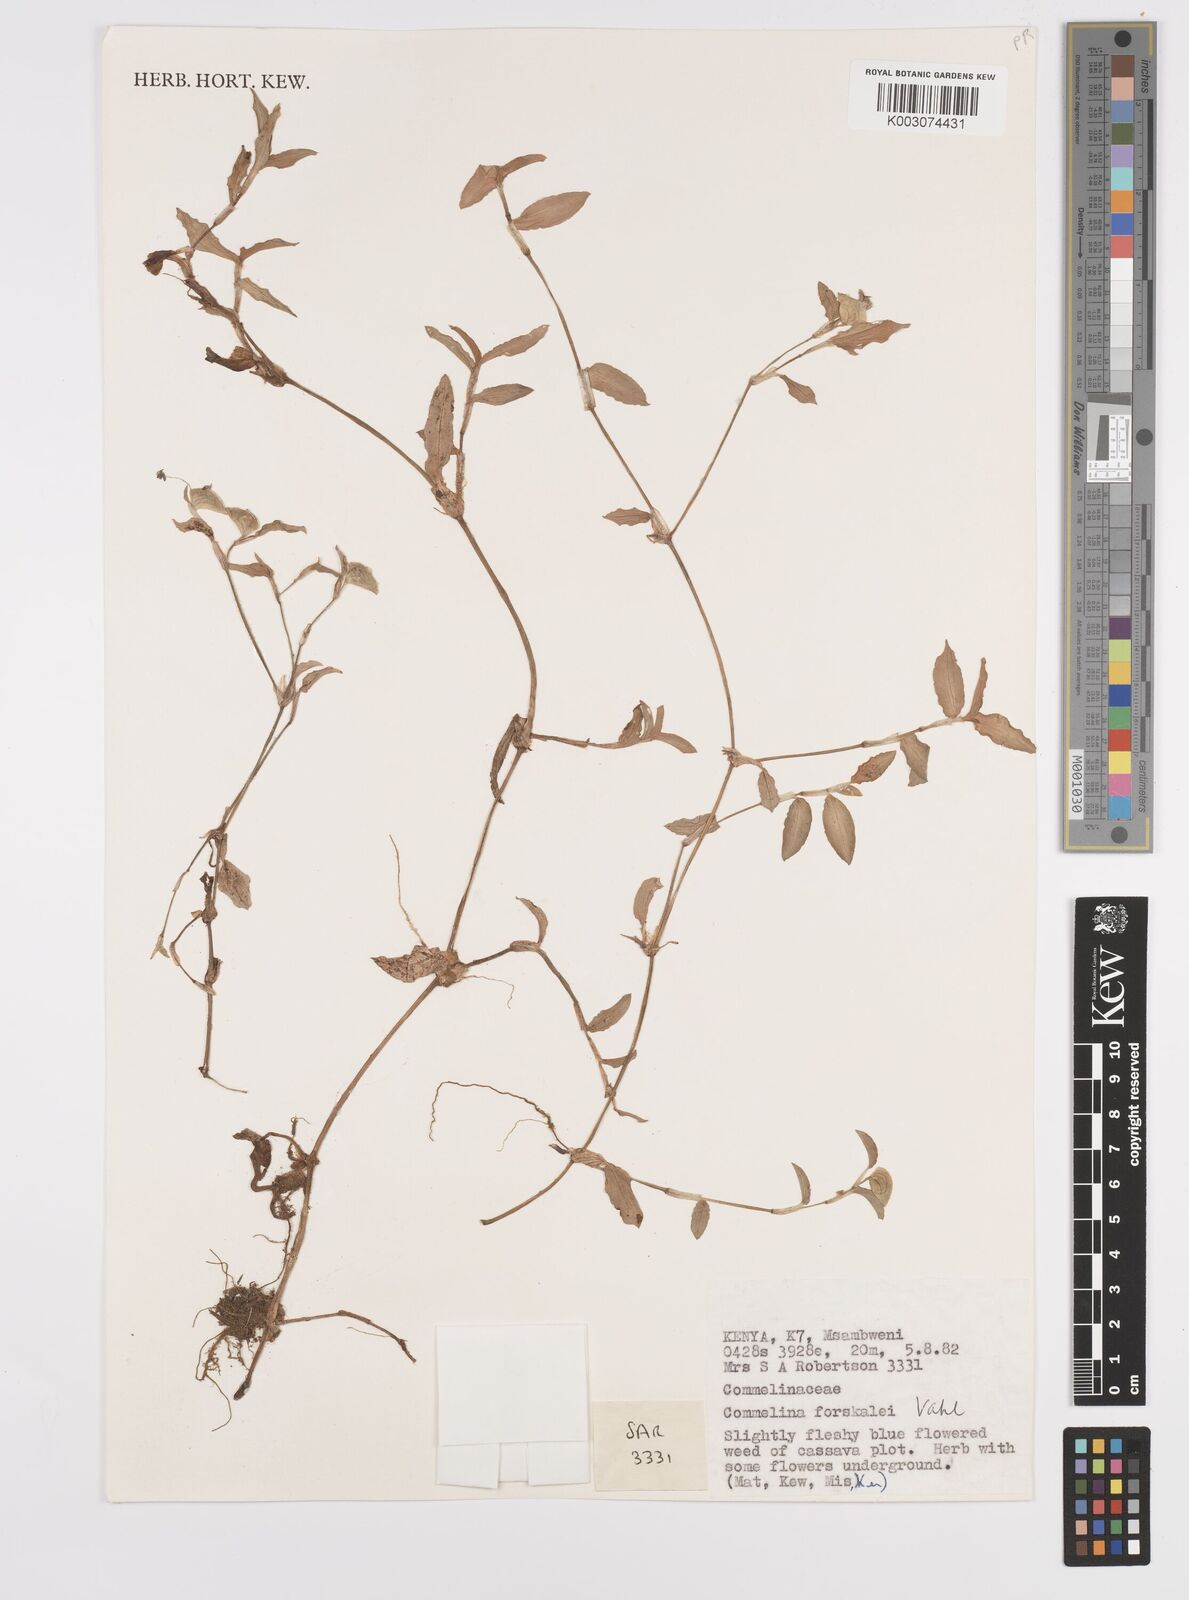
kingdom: Plantae
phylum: Tracheophyta
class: Liliopsida
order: Commelinales
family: Commelinaceae
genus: Commelina
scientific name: Commelina forskaolii
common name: Rat's ear
